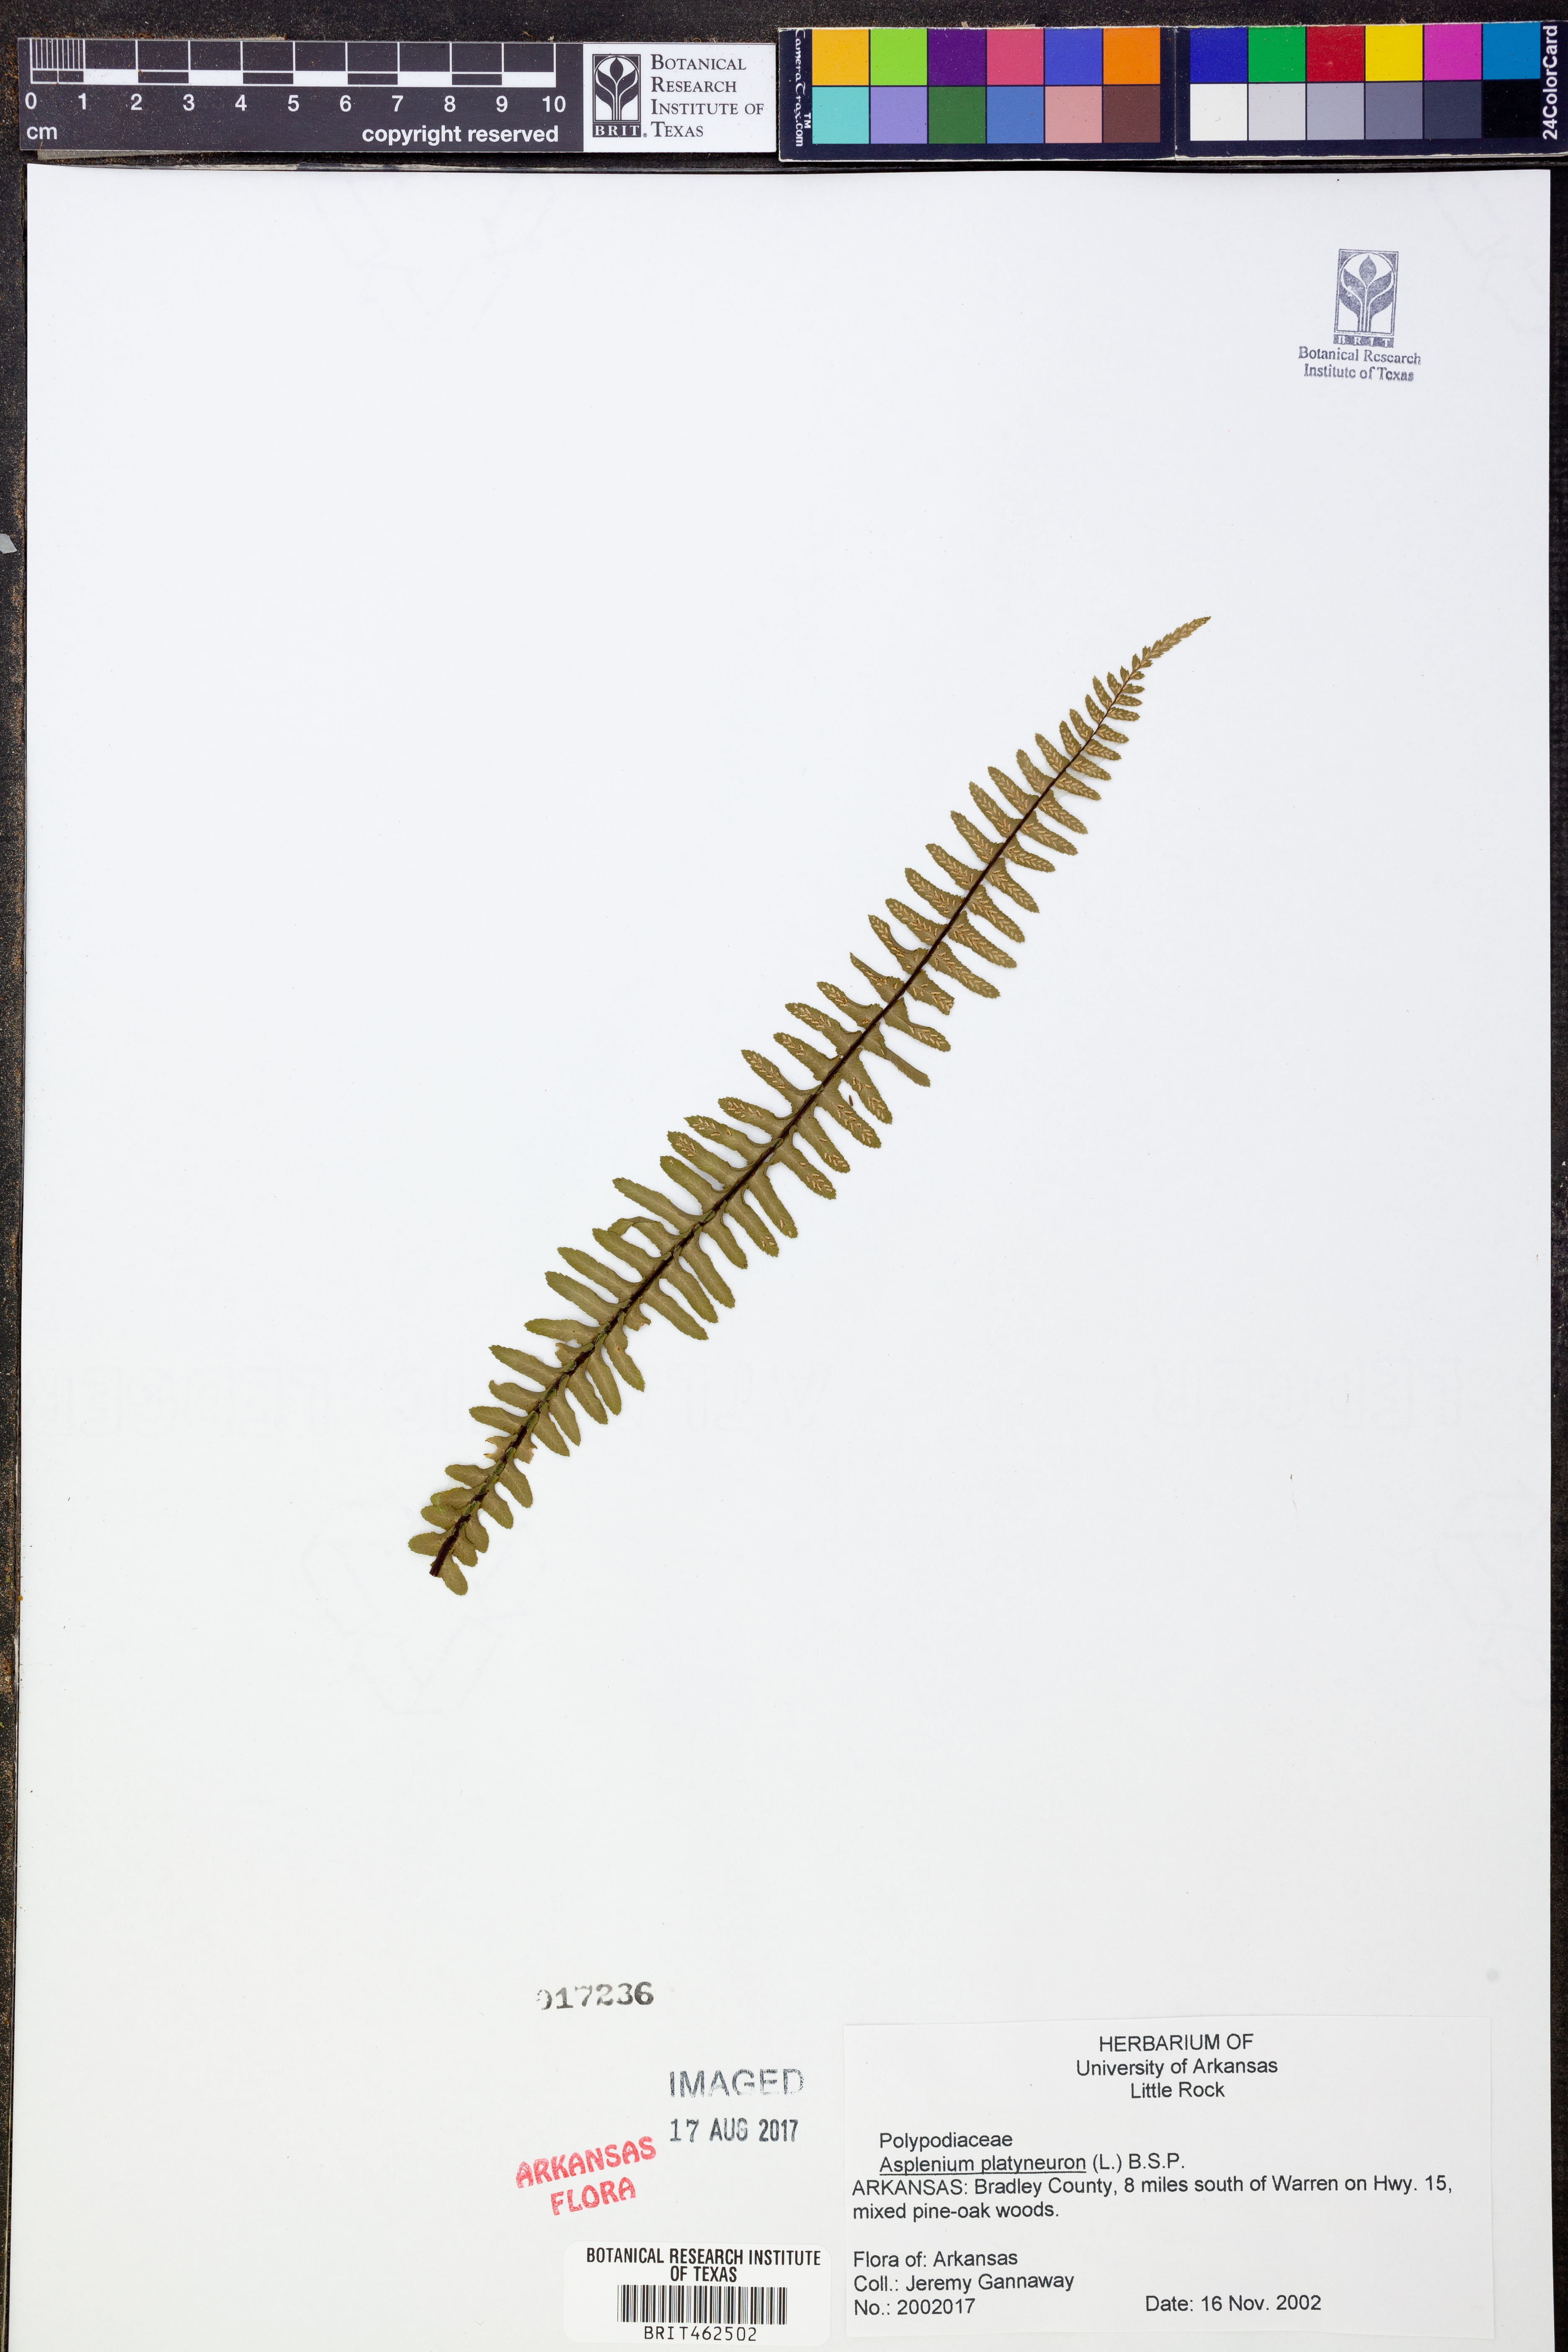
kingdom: Plantae
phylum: Tracheophyta
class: Polypodiopsida
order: Polypodiales
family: Aspleniaceae
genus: Asplenium
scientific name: Asplenium platyneuron
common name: Ebony spleenwort
